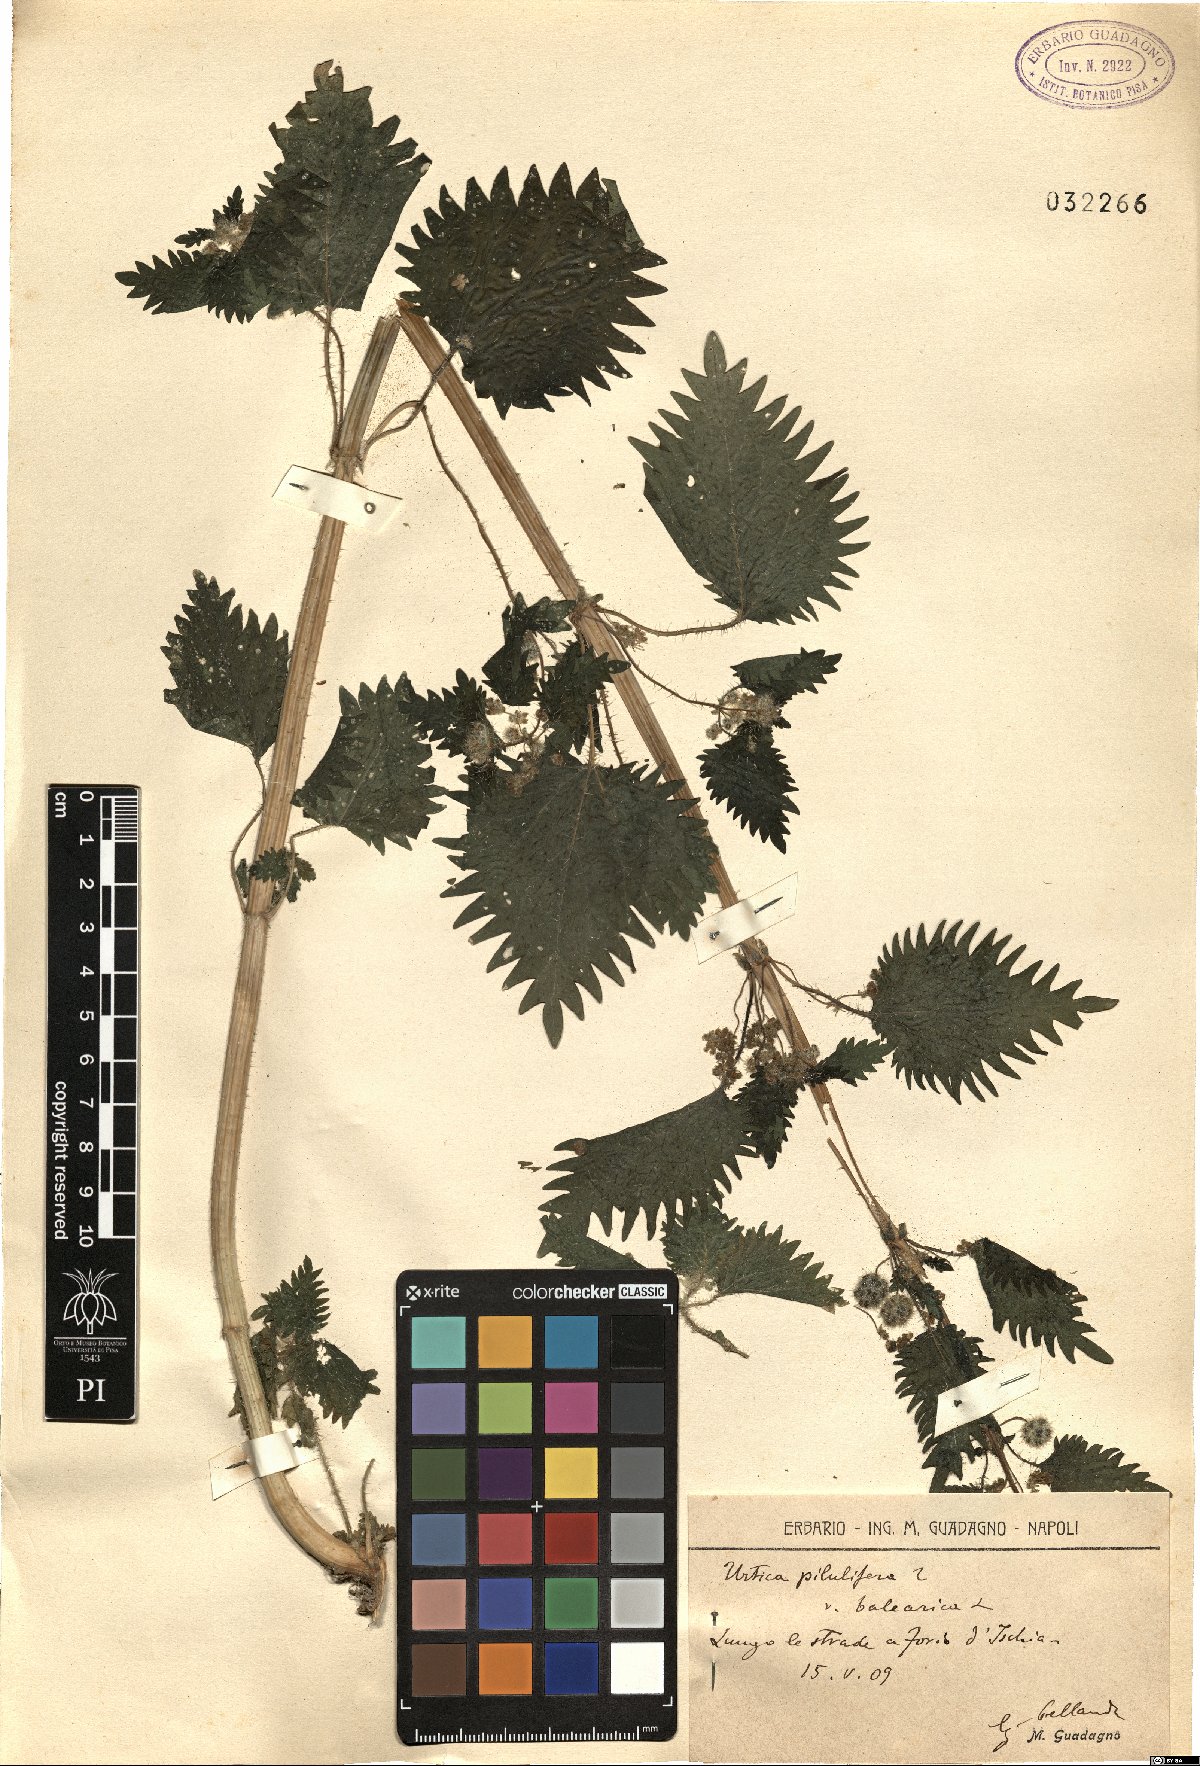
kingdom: Plantae
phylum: Tracheophyta
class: Magnoliopsida
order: Rosales
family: Urticaceae
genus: Urtica
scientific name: Urtica pilulifera
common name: Roman nettle
